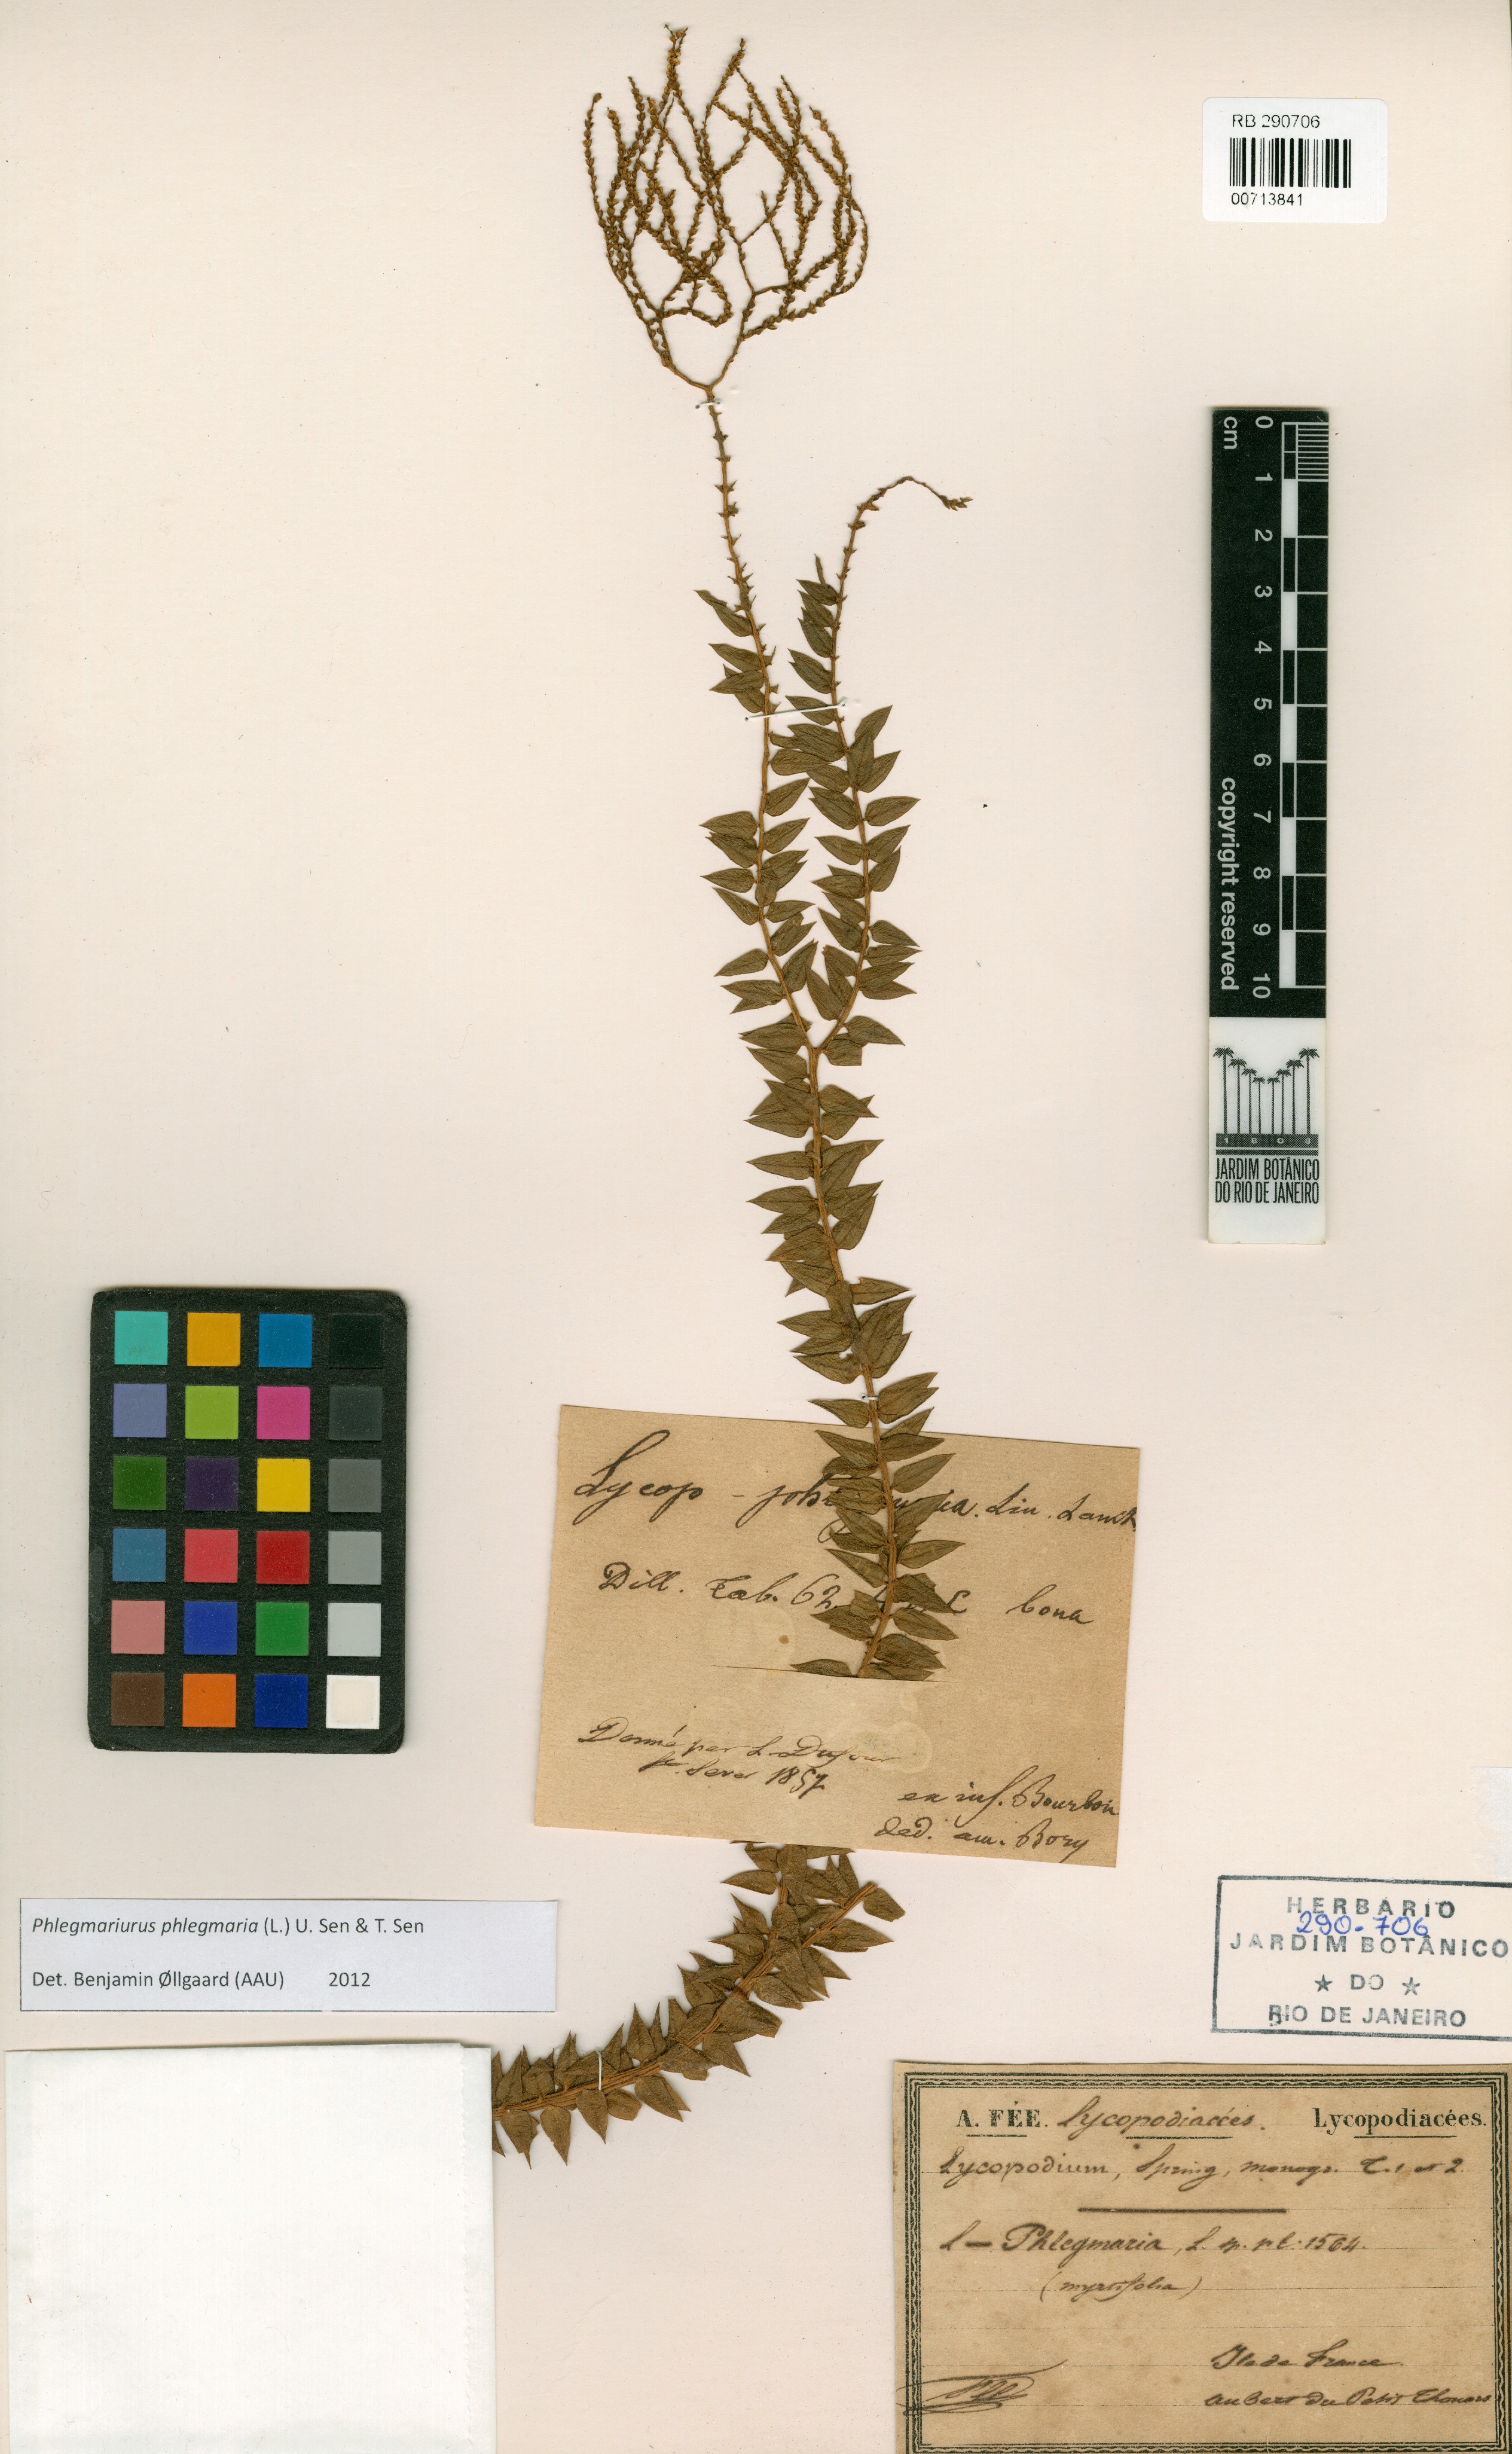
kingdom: Plantae
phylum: Tracheophyta
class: Lycopodiopsida
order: Lycopodiales
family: Lycopodiaceae
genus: Phlegmariurus
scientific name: Phlegmariurus phlegmaria
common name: Coarse tassel-fern
